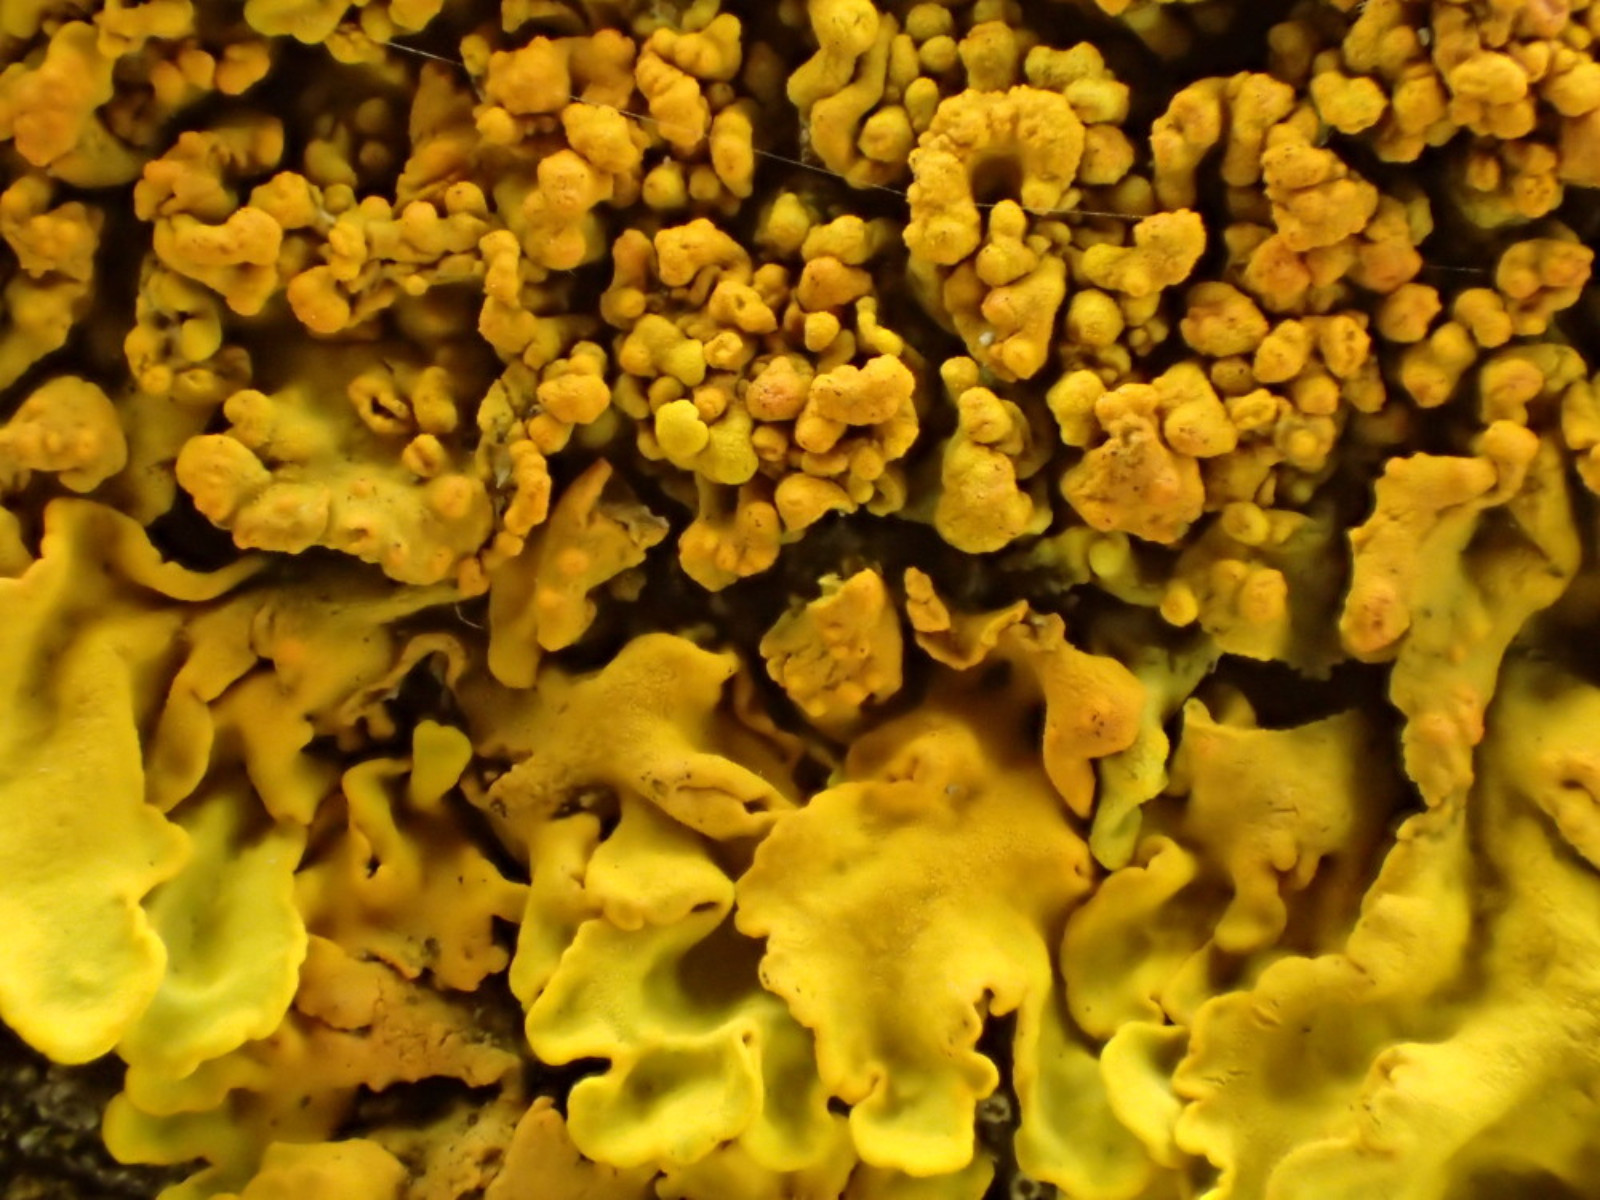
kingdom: Fungi
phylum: Ascomycota
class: Lecanoromycetes
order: Teloschistales
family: Teloschistaceae
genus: Xanthoria
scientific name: Xanthoria calcicola
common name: vortet væggelav
